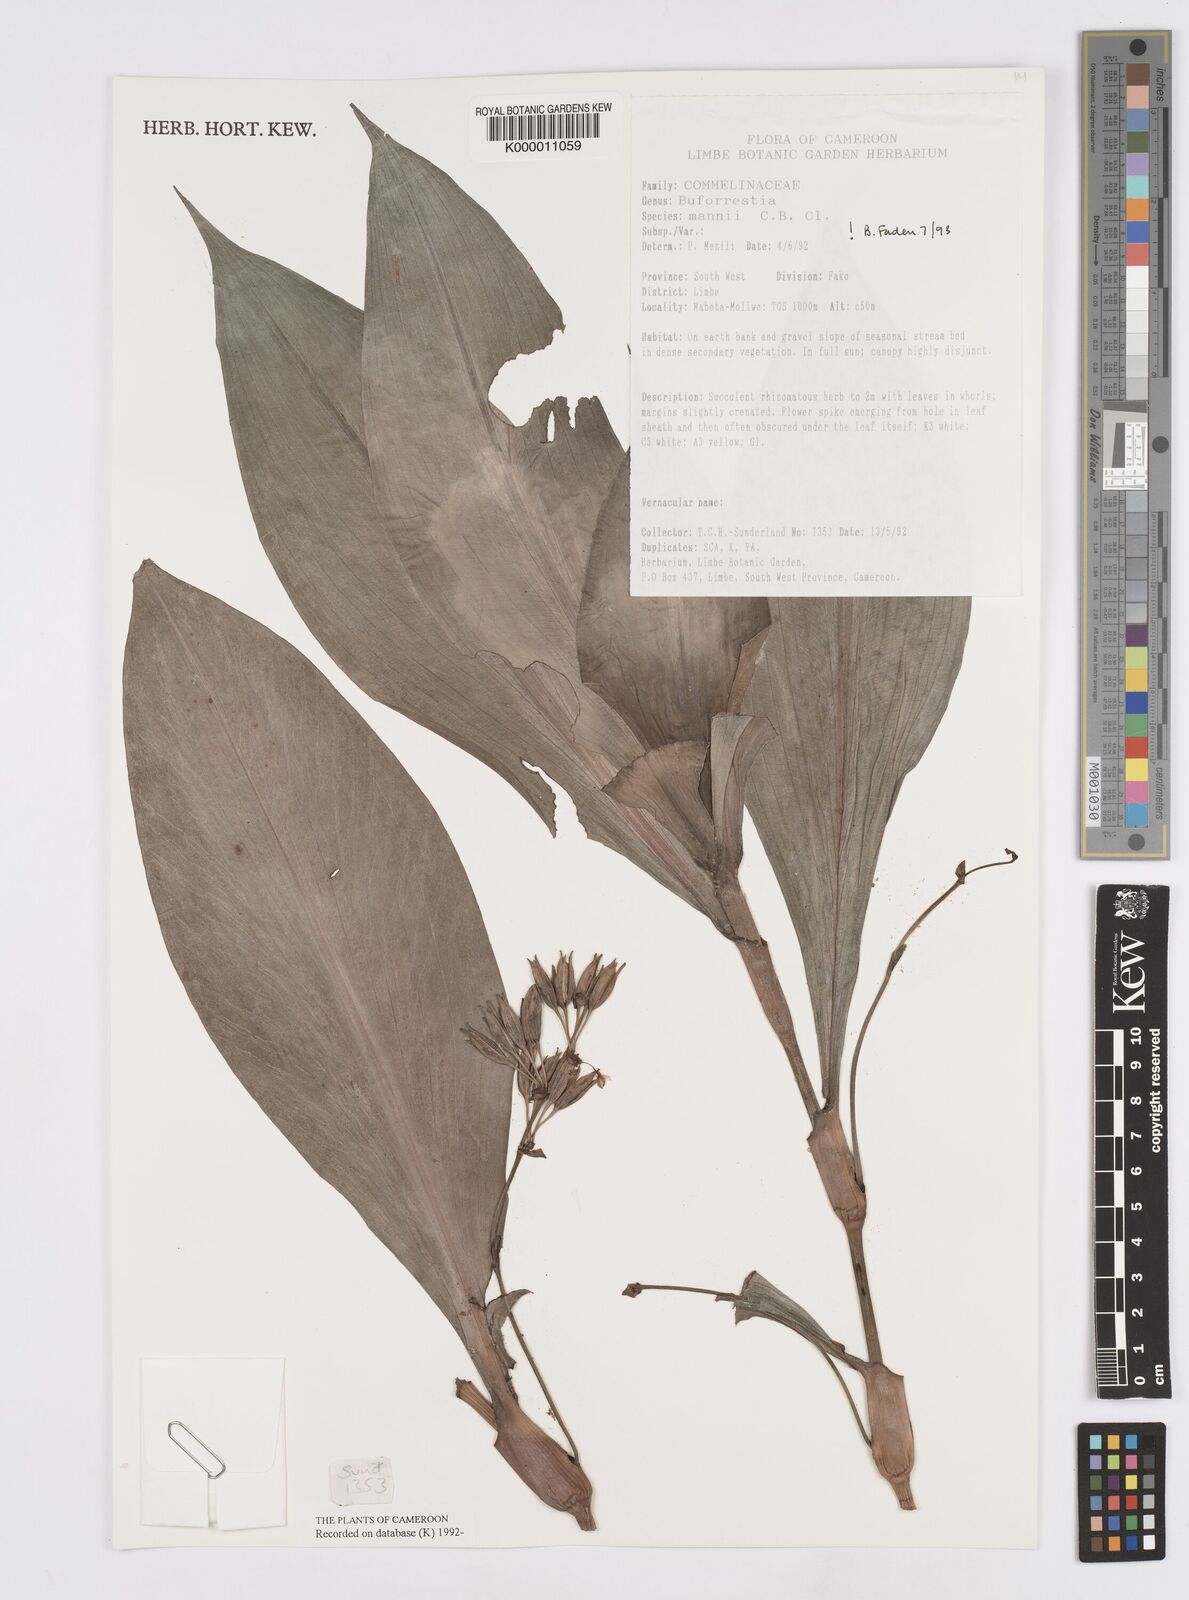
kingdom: Plantae
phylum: Tracheophyta
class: Liliopsida
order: Commelinales
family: Commelinaceae
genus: Buforrestia
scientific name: Buforrestia mannii
